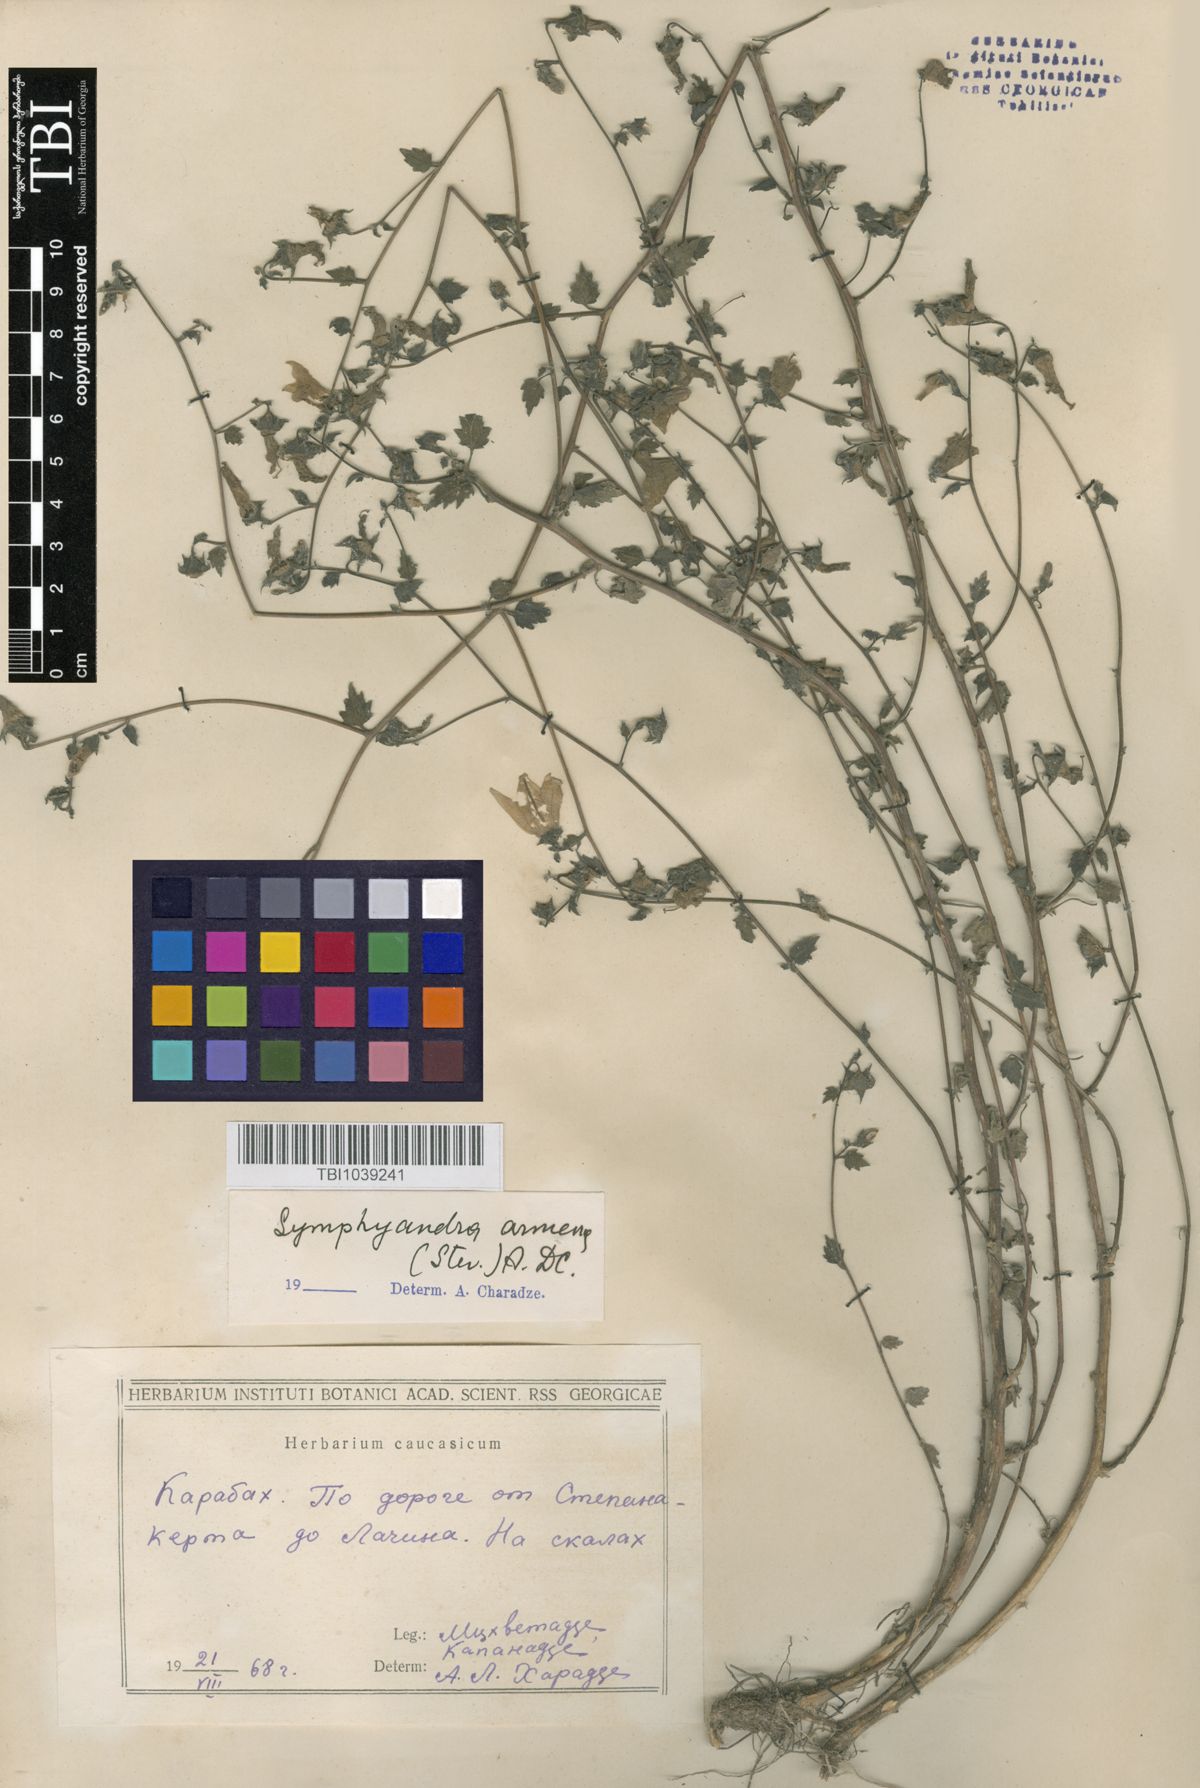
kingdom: Plantae
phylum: Tracheophyta
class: Magnoliopsida
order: Asterales
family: Campanulaceae
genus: Campanula
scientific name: Campanula armena
